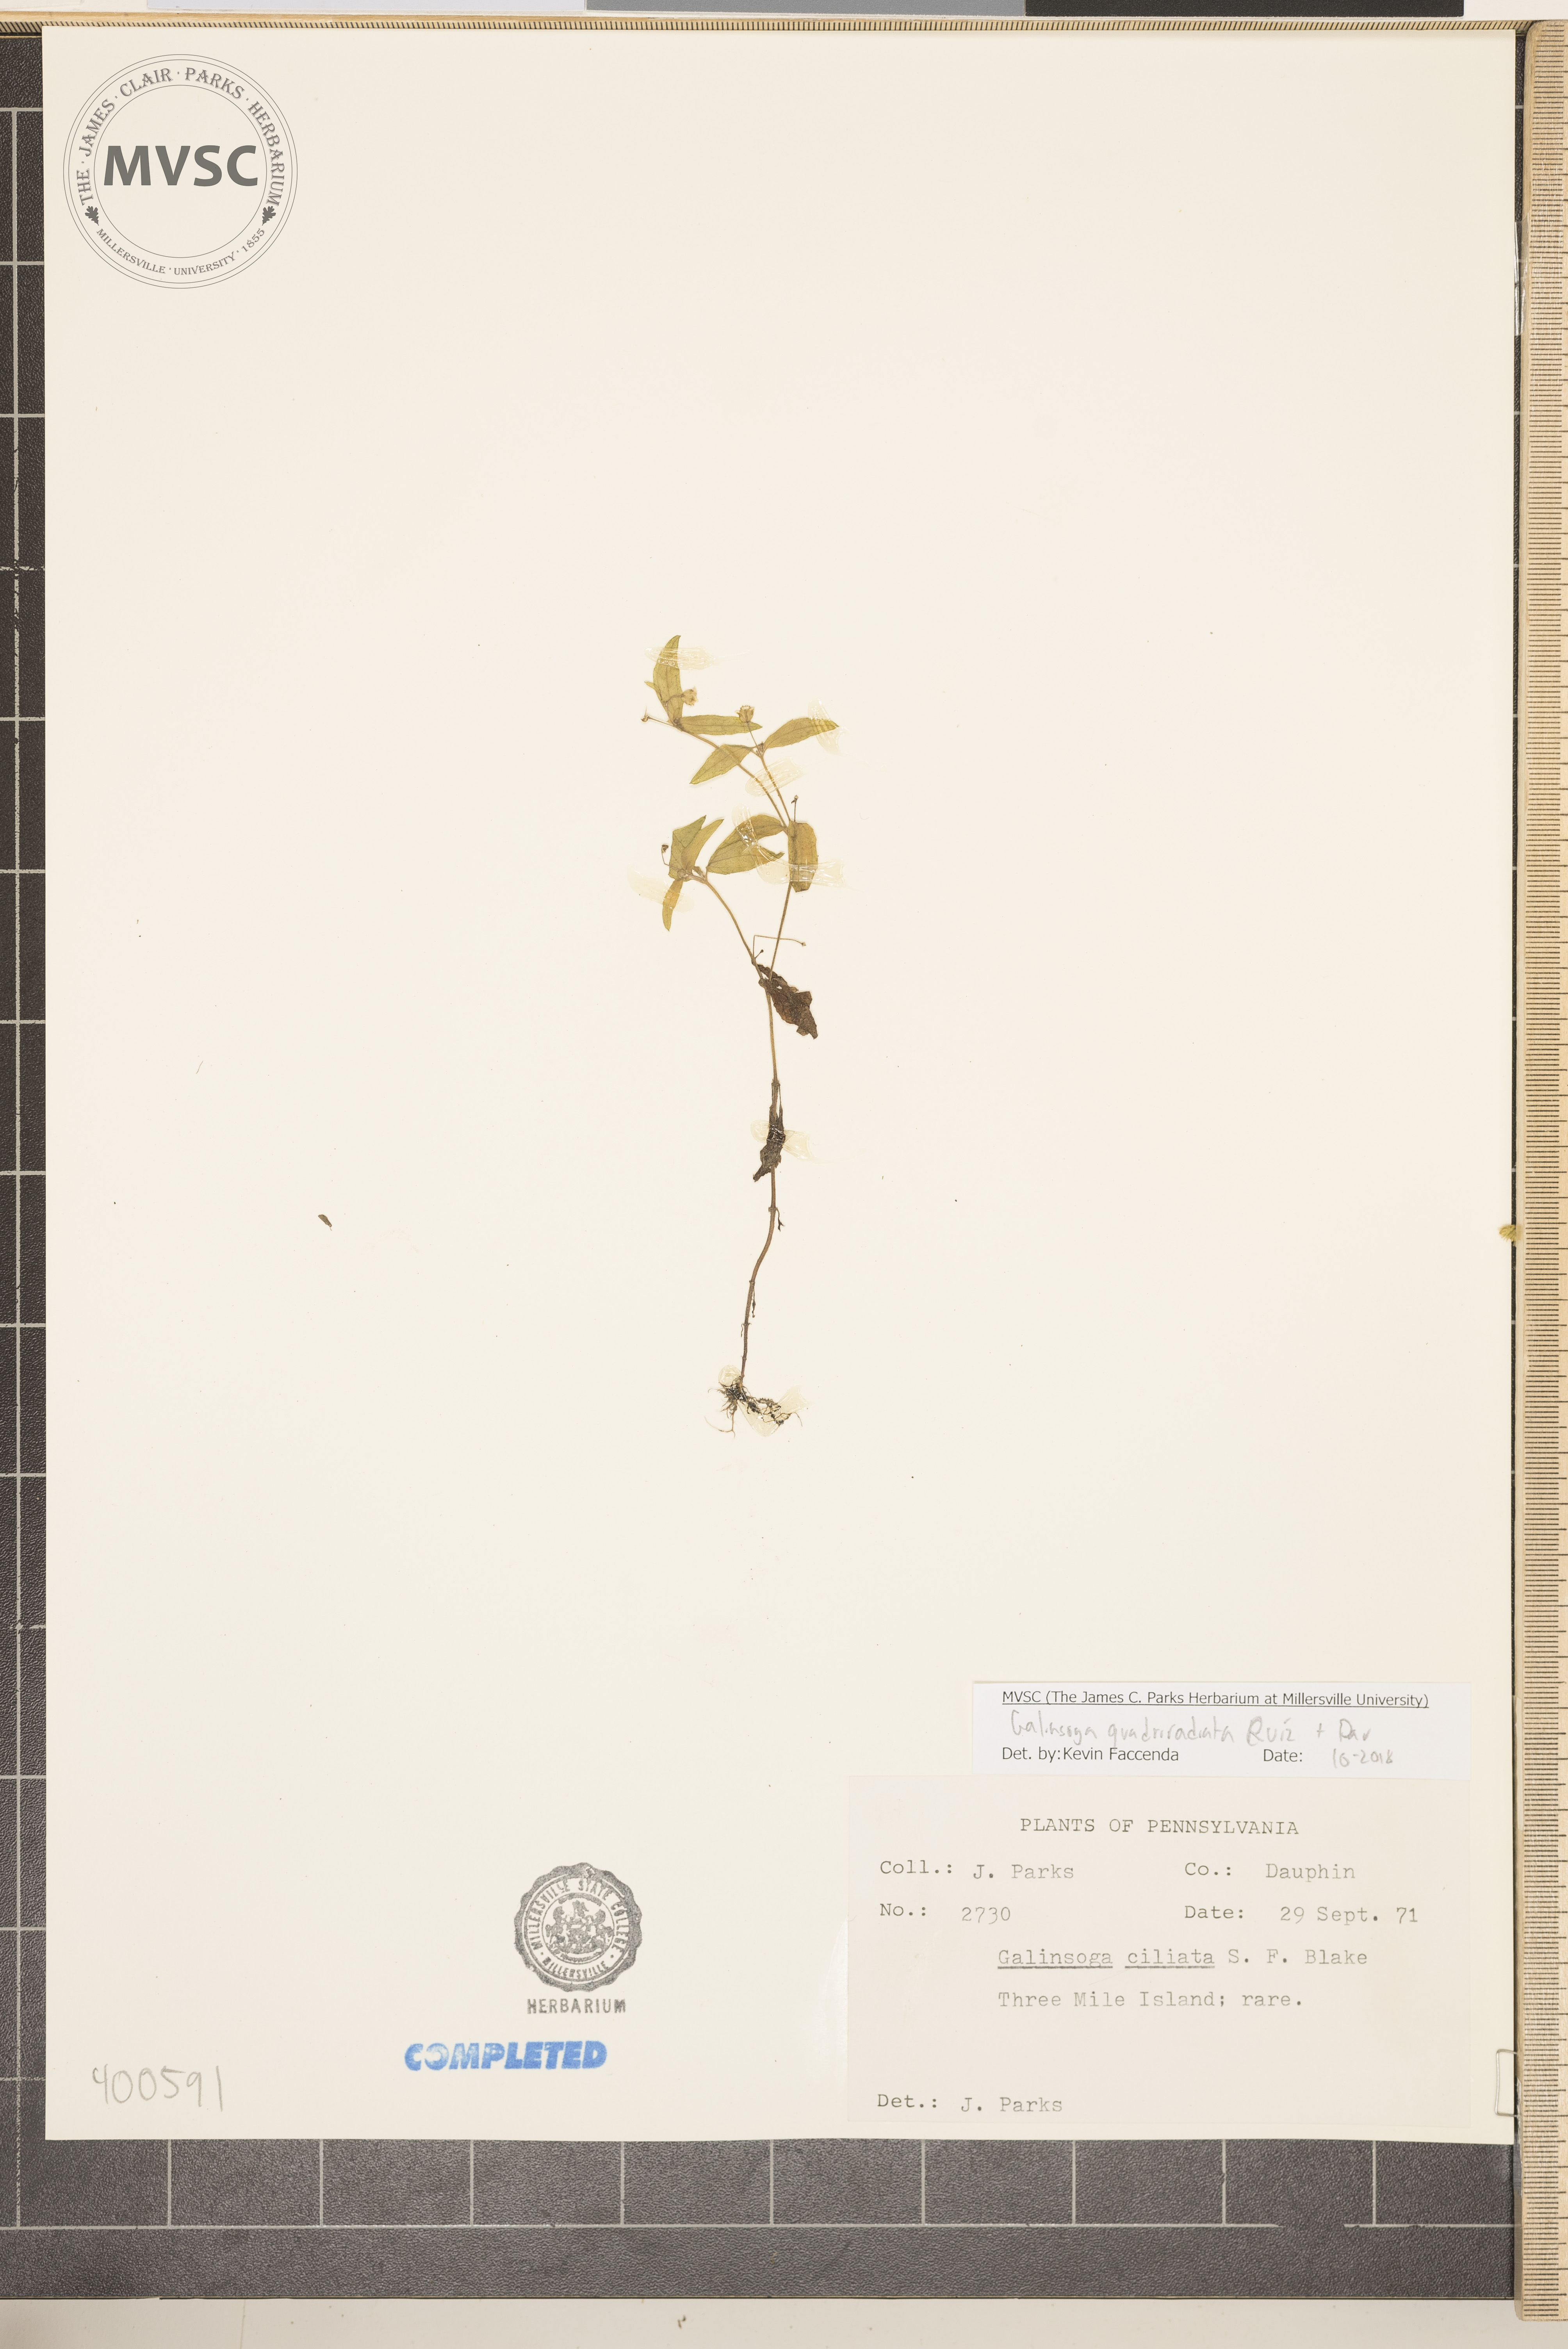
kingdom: Plantae
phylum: Tracheophyta
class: Magnoliopsida
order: Asterales
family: Asteraceae
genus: Galinsoga
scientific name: Galinsoga quadriradiata
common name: Shaggy soldier
